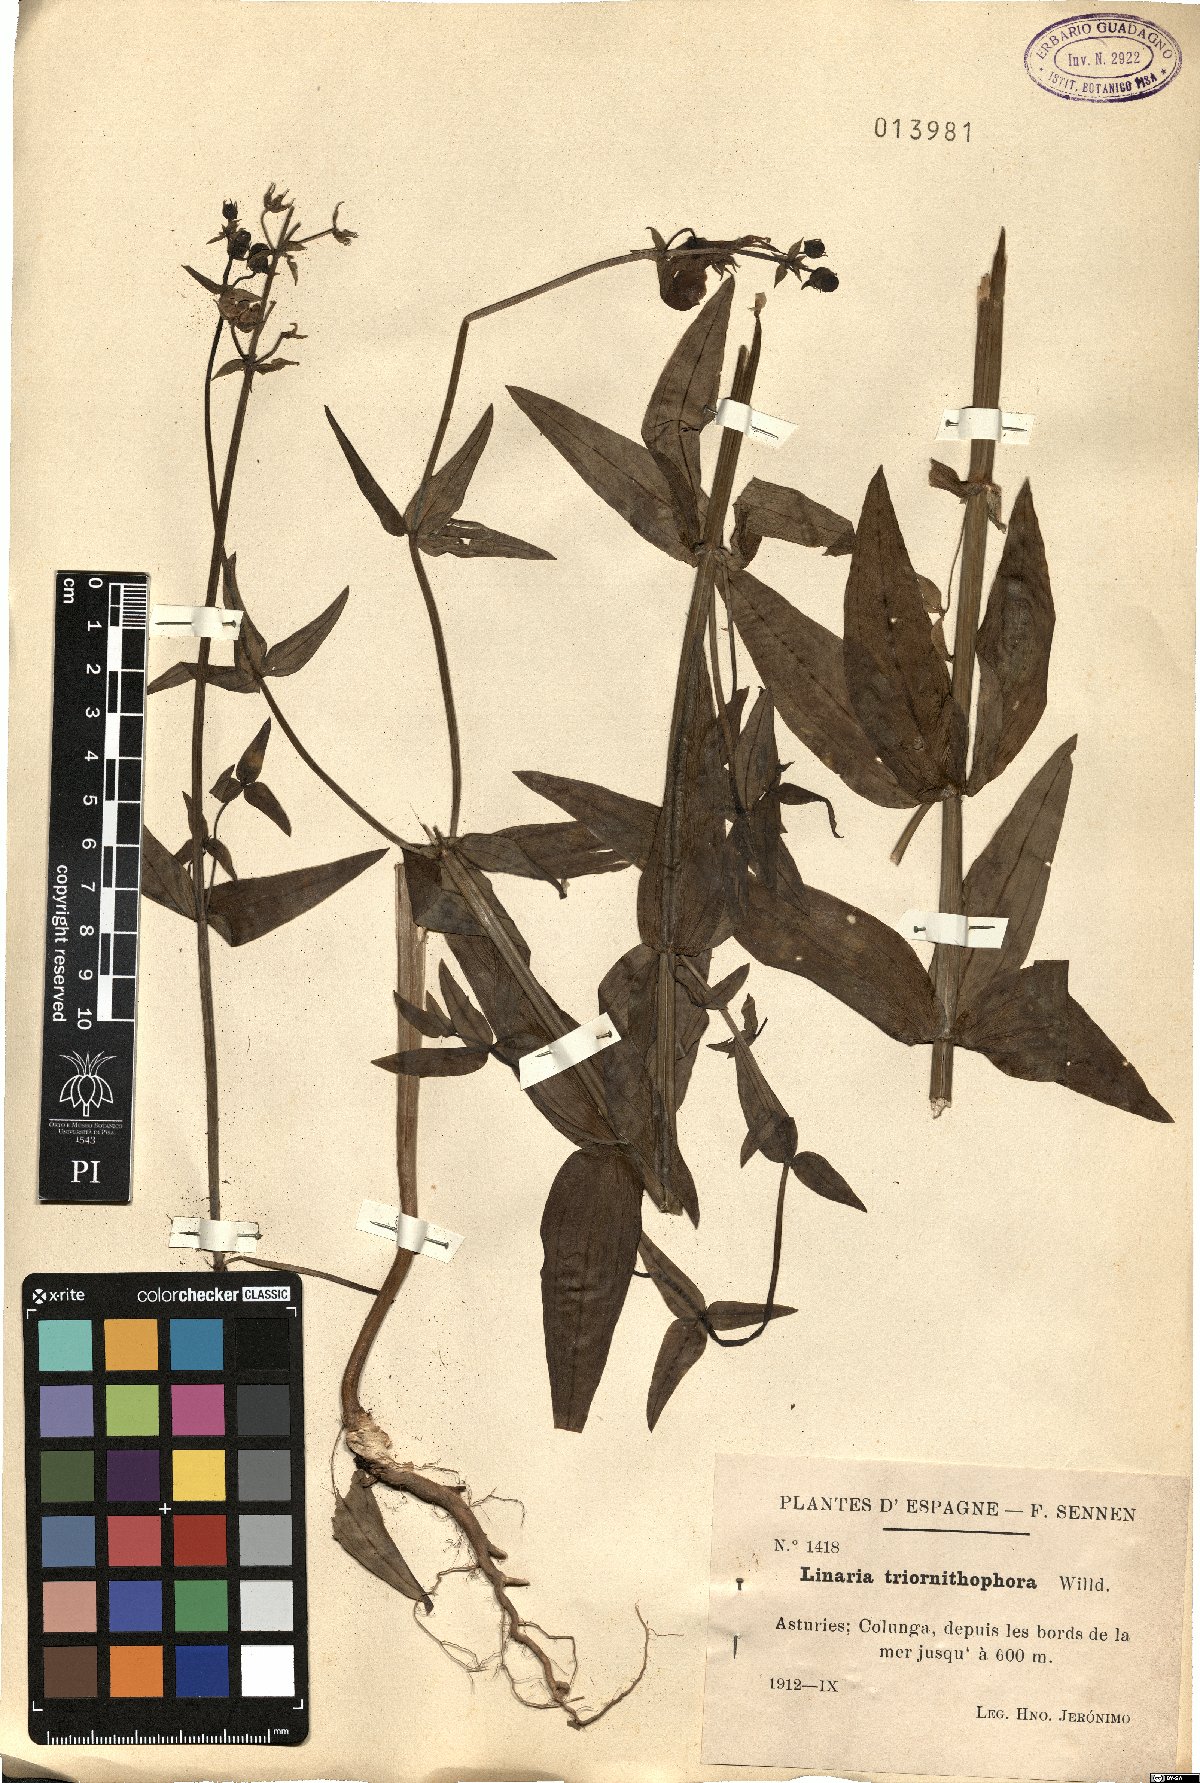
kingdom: Plantae
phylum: Tracheophyta
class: Magnoliopsida
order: Lamiales
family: Plantaginaceae
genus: Linaria
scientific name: Linaria triornithophora
